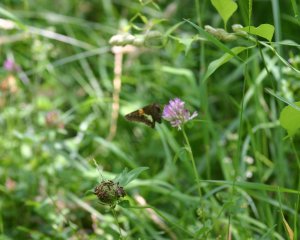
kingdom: Animalia
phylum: Arthropoda
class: Insecta
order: Lepidoptera
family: Hesperiidae
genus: Epargyreus
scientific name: Epargyreus clarus
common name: Silver-spotted Skipper
